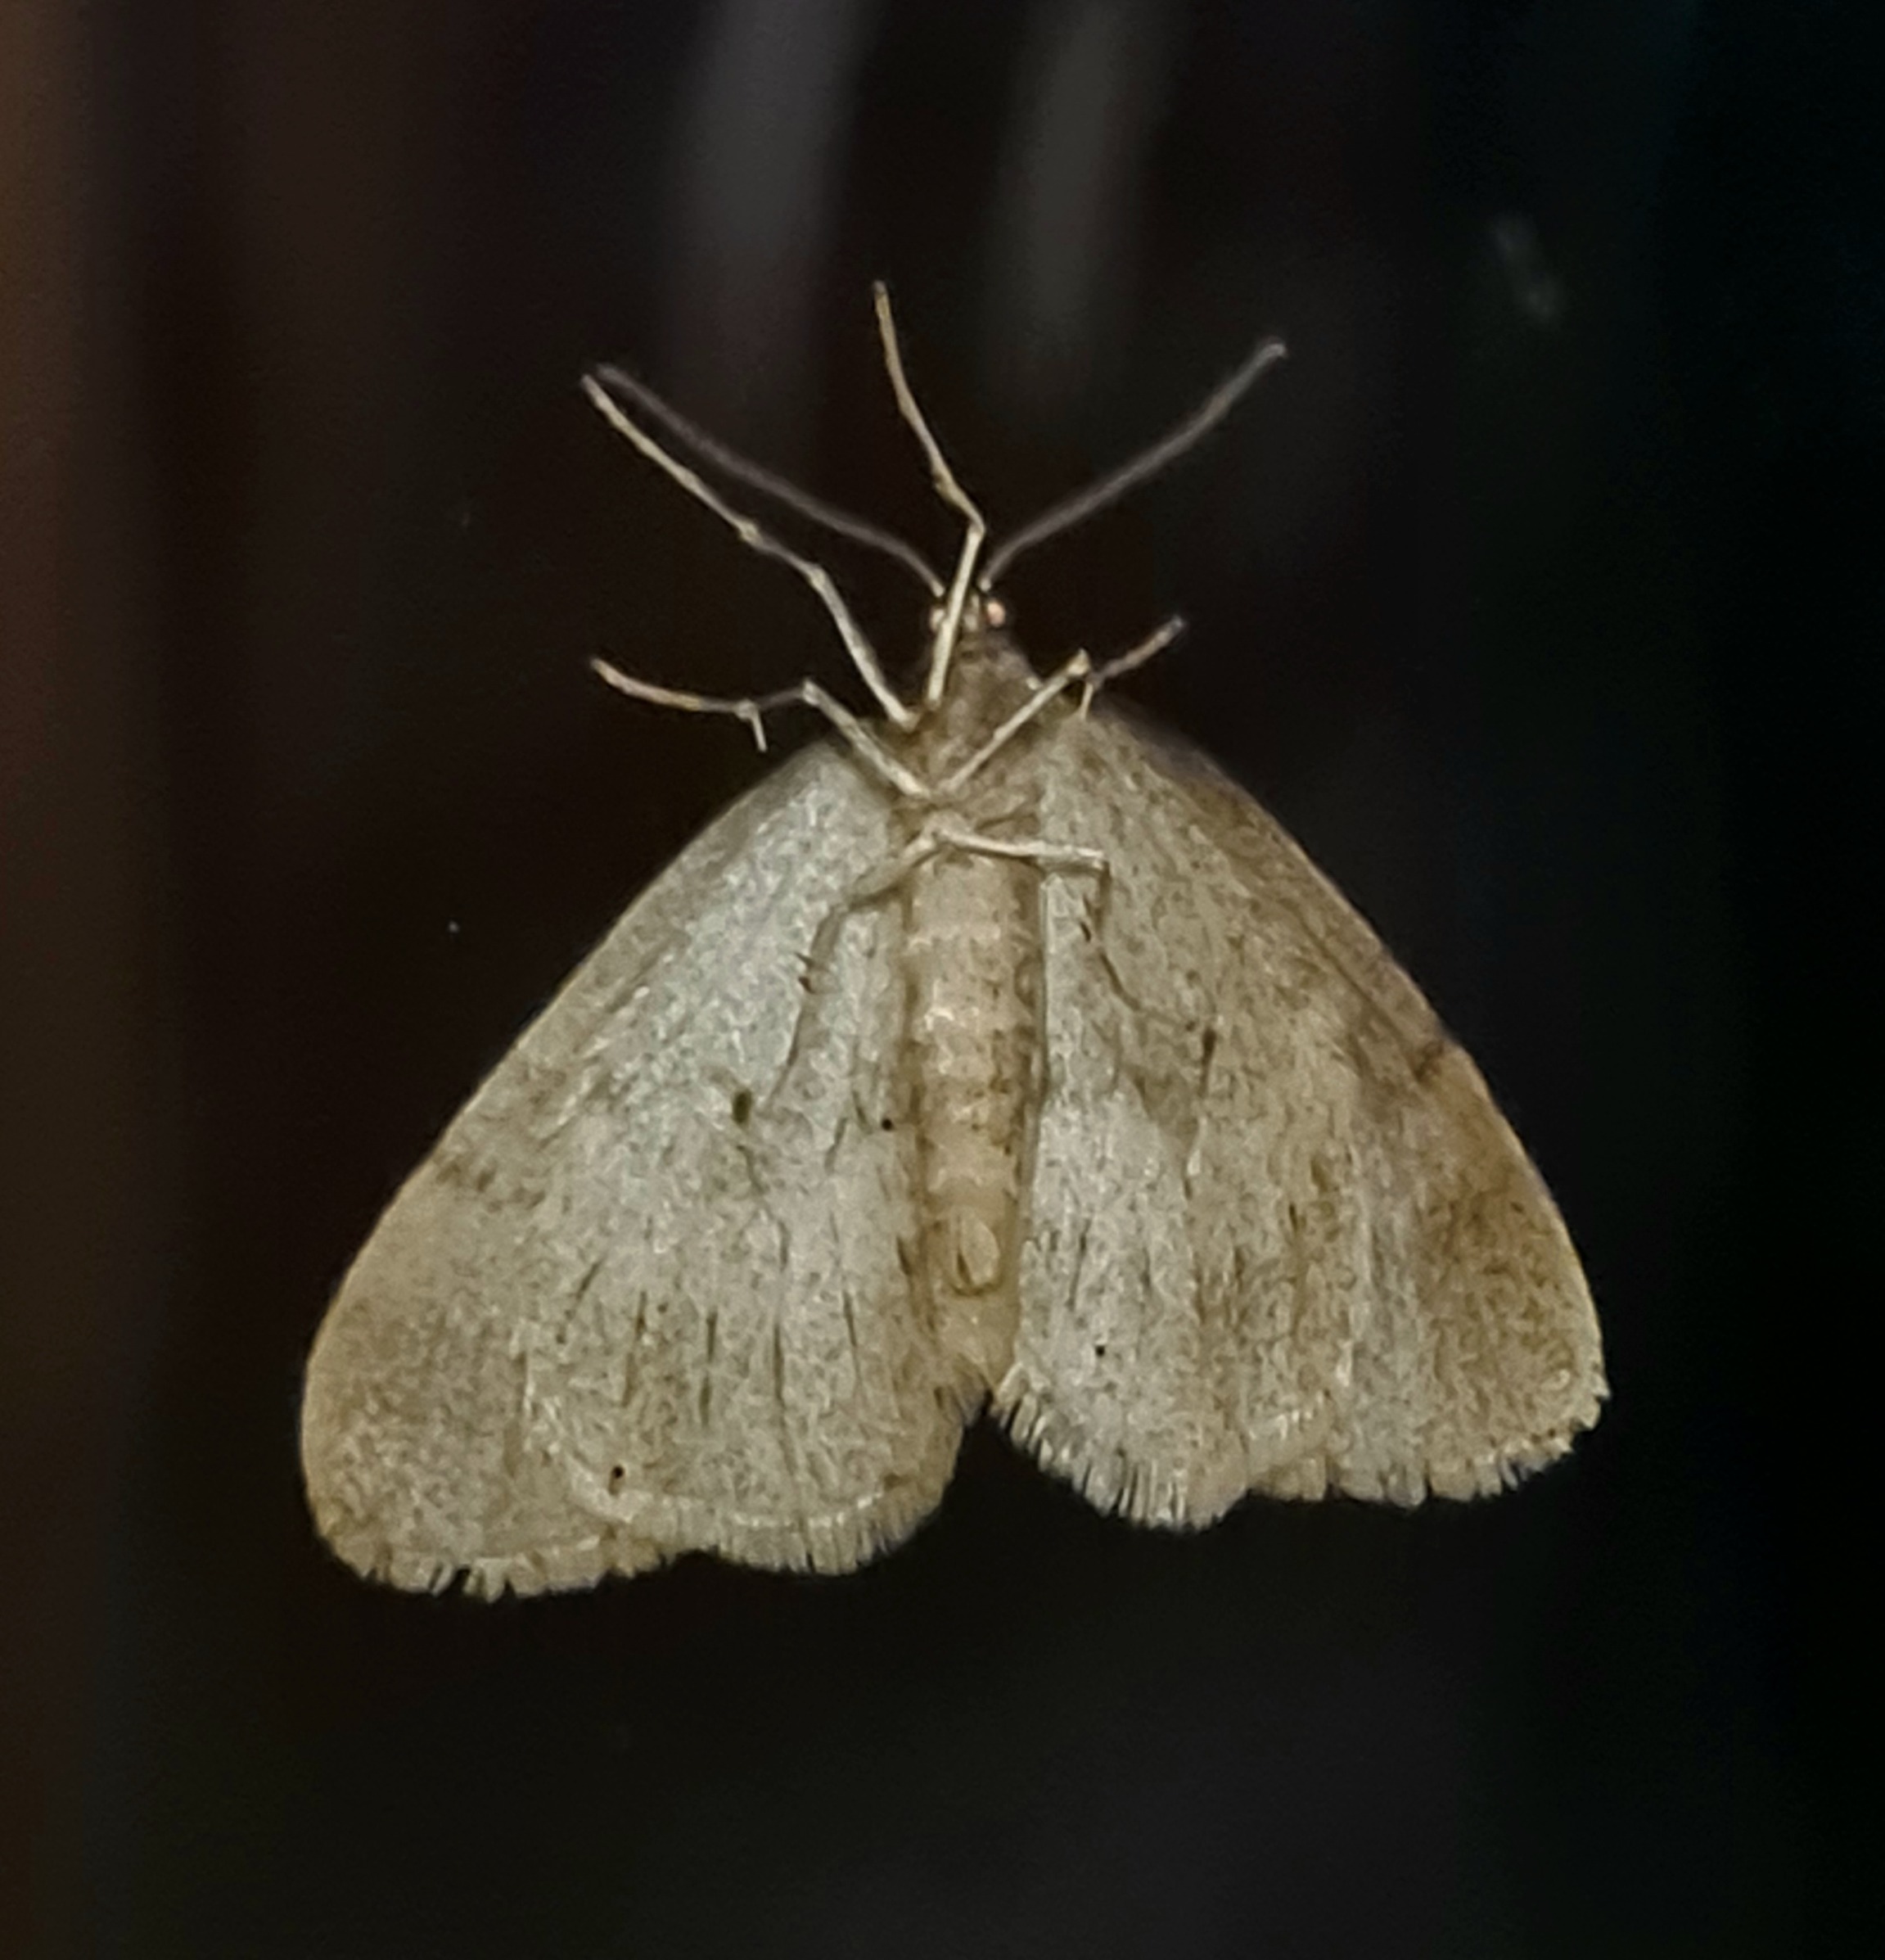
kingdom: Animalia
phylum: Arthropoda
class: Insecta
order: Lepidoptera
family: Geometridae
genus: Operophtera
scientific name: Operophtera brumata
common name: Lille frostmåler
